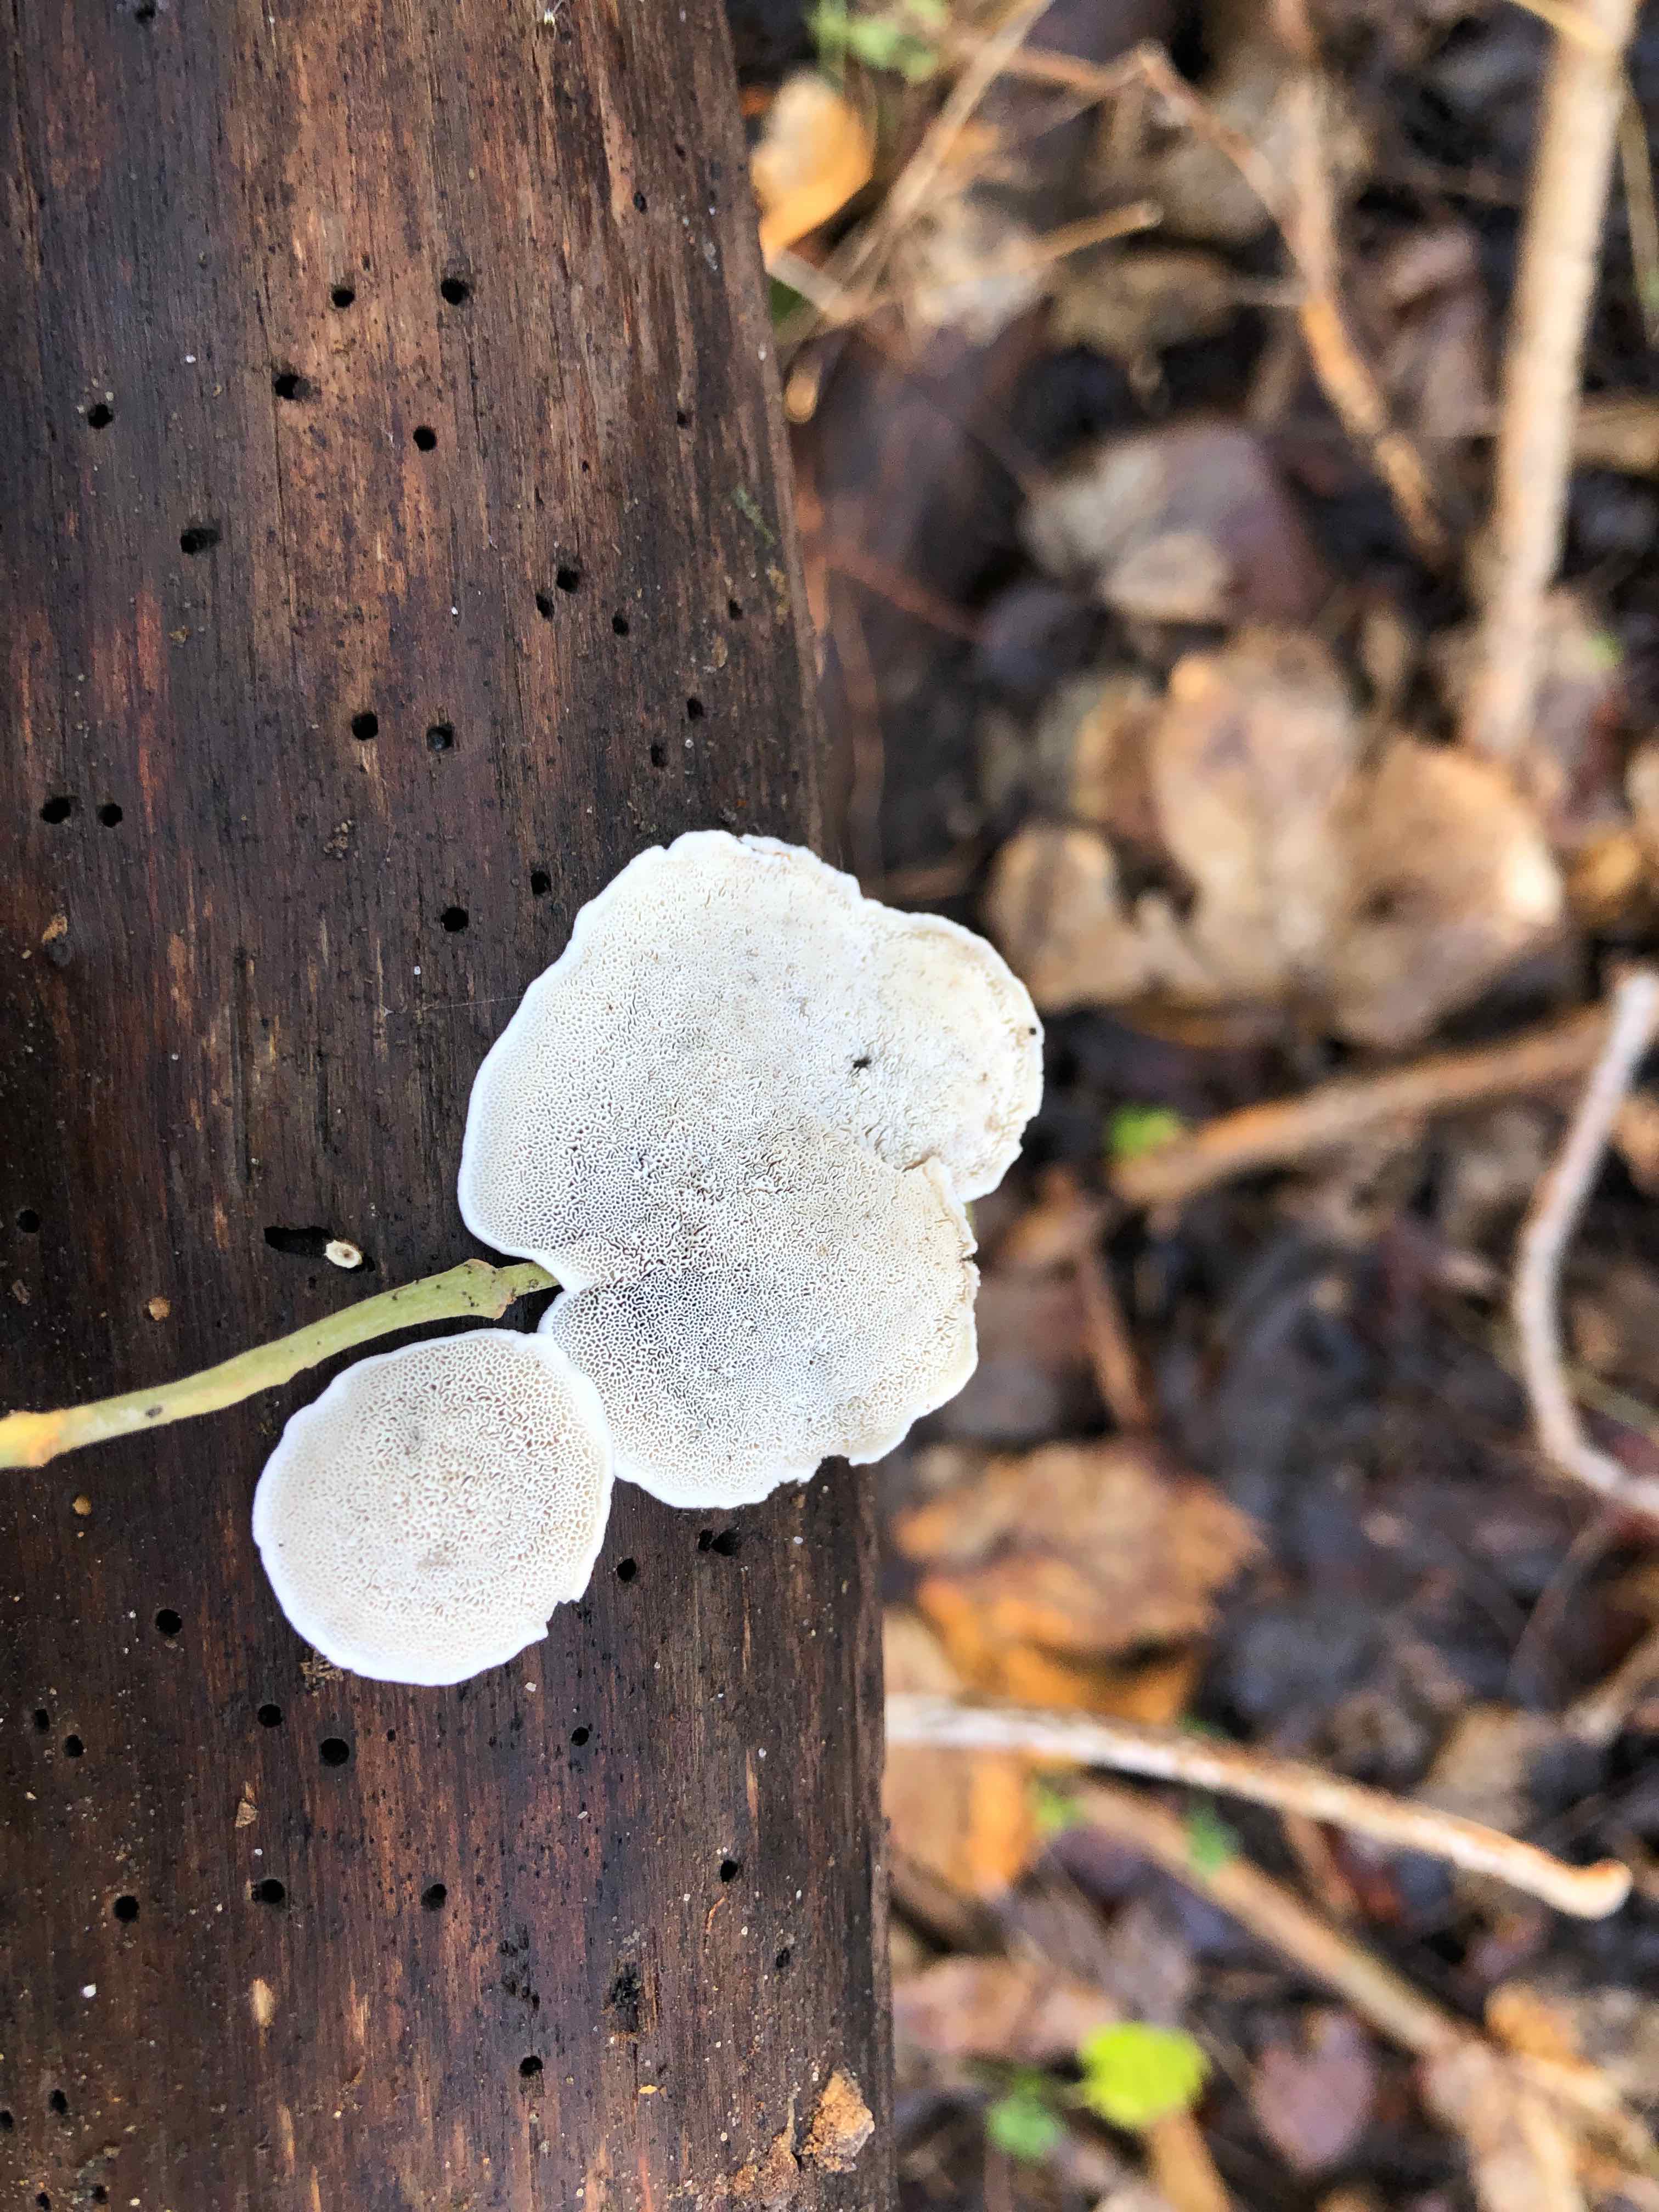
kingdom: Fungi
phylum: Basidiomycota
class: Agaricomycetes
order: Polyporales
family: Polyporaceae
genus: Cyanosporus
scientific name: Cyanosporus alni
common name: blegblå kødporesvamp
